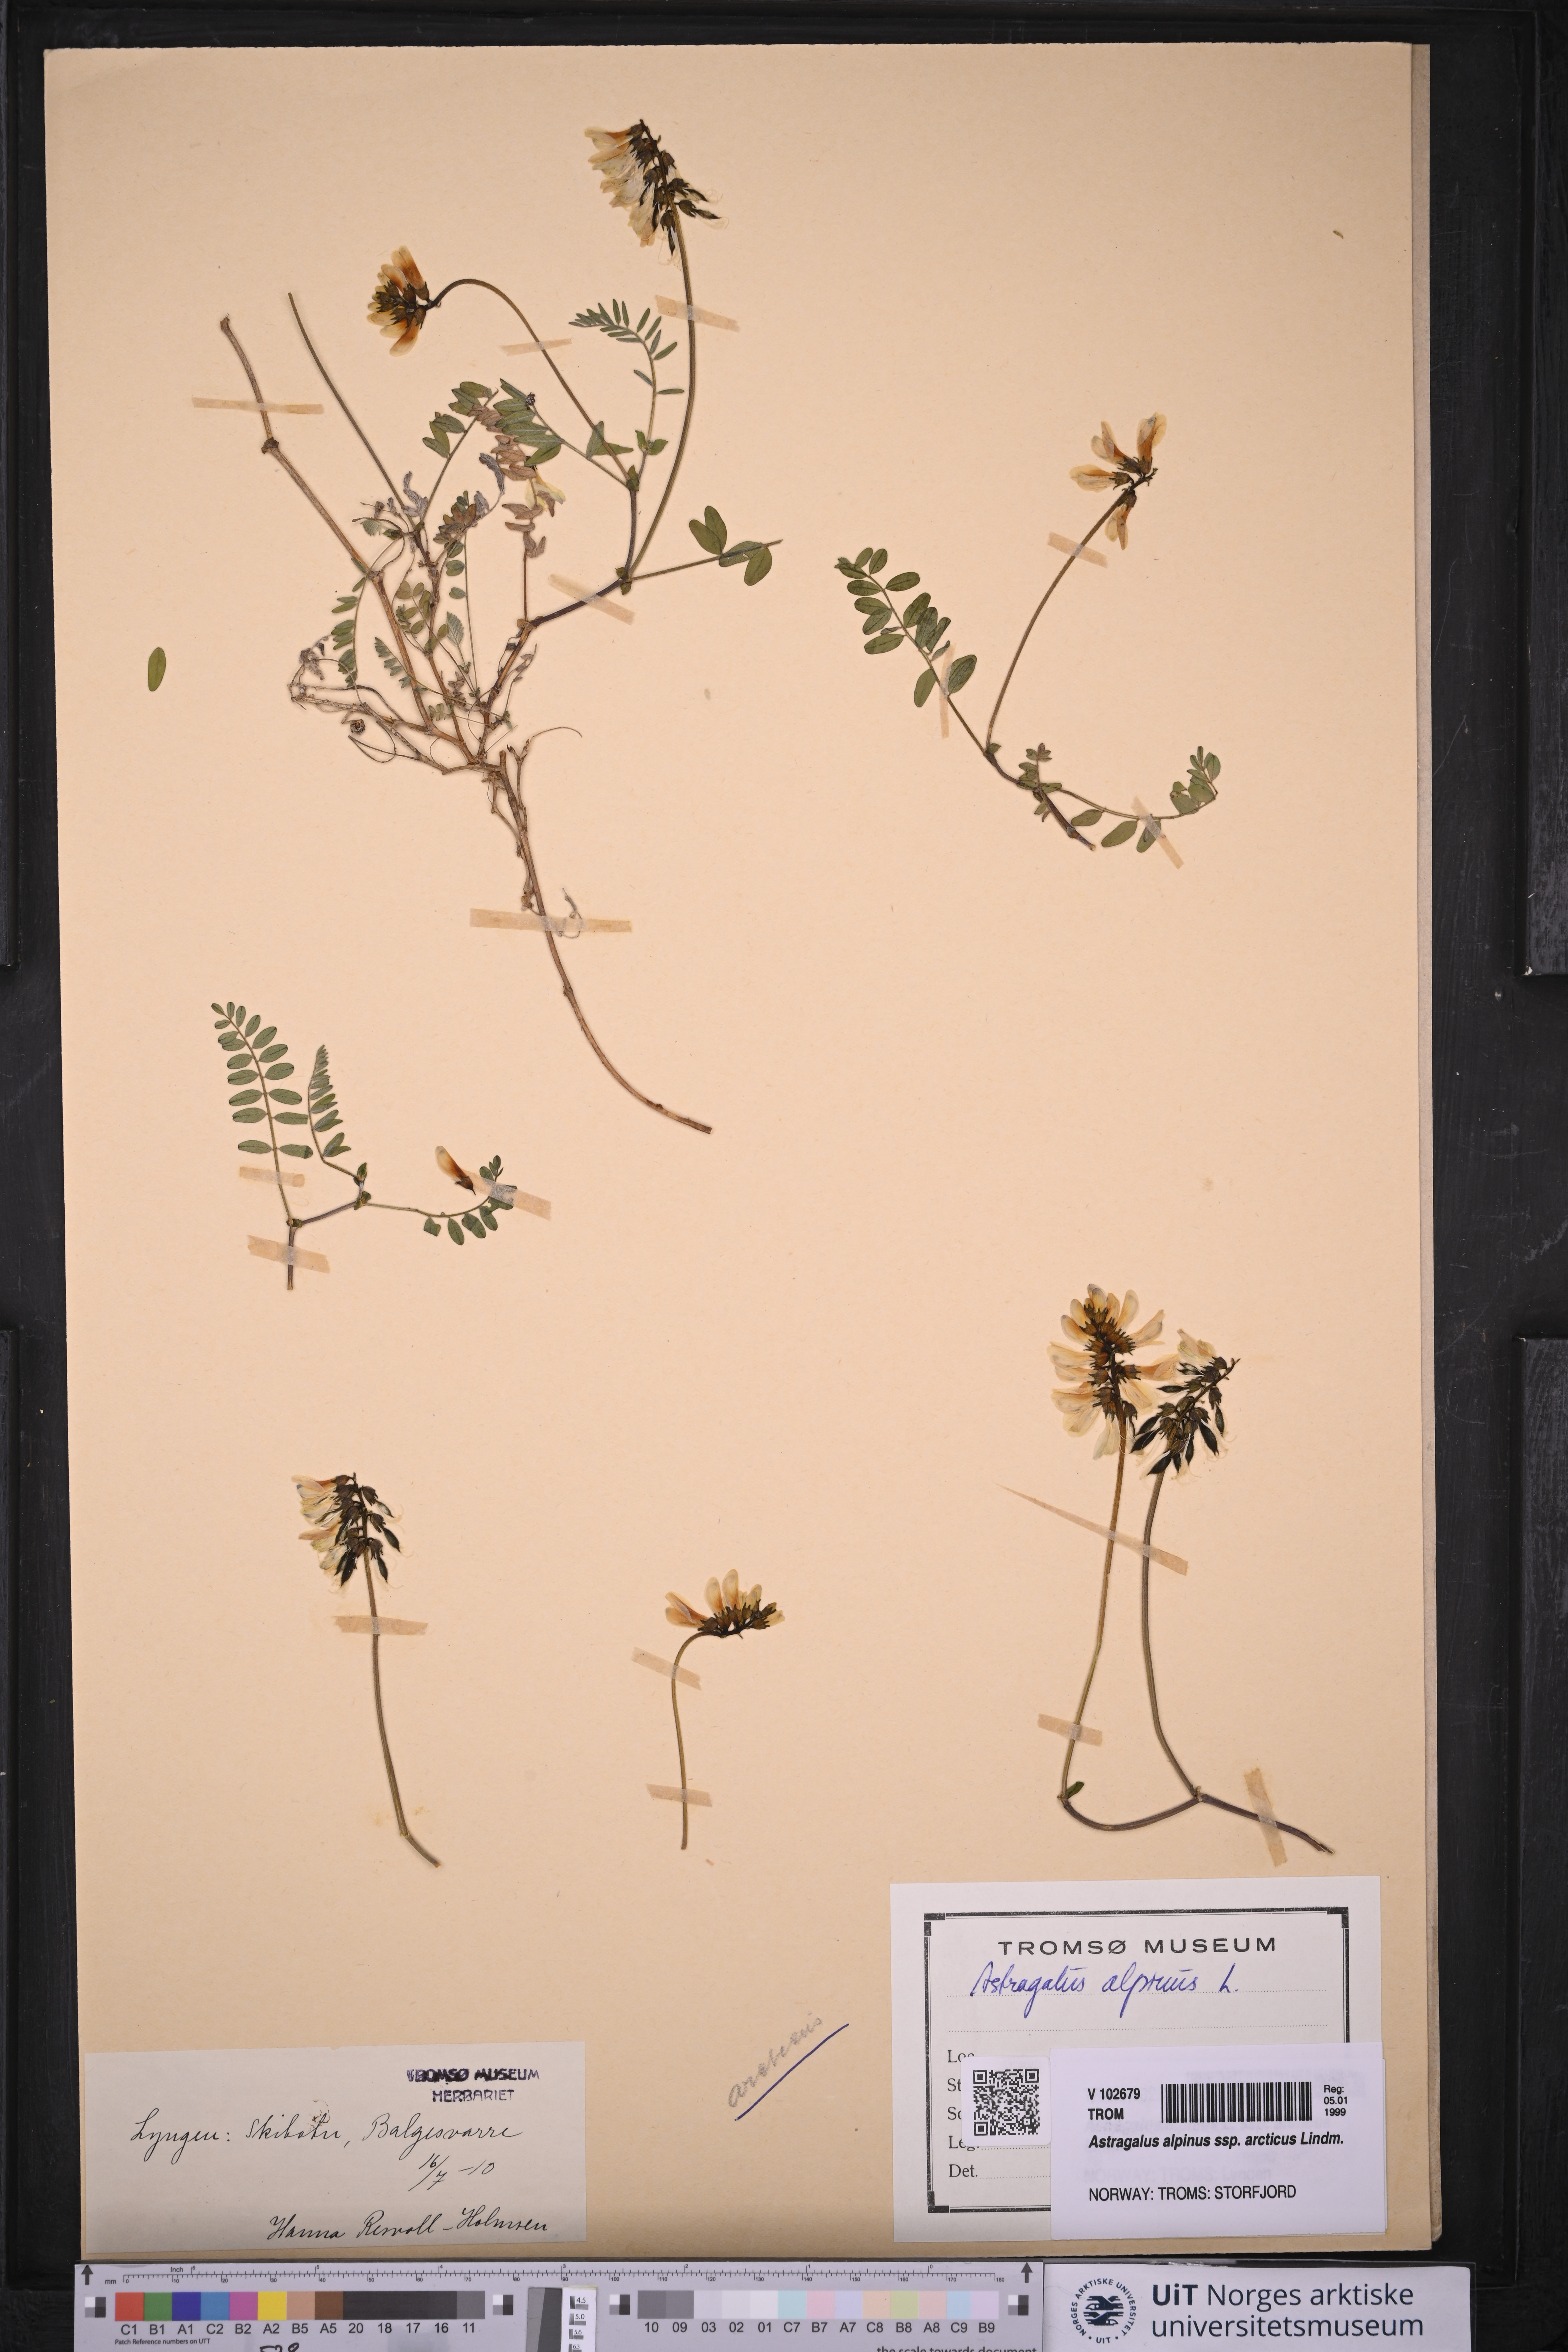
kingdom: Plantae
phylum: Tracheophyta
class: Magnoliopsida
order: Fabales
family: Fabaceae
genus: Astragalus
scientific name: Astragalus norvegicus
